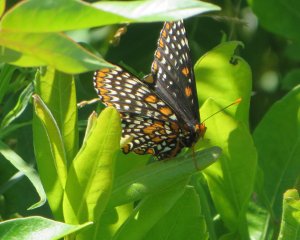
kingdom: Animalia
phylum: Arthropoda
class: Insecta
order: Lepidoptera
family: Nymphalidae
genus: Euphydryas
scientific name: Euphydryas phaeton
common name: Baltimore Checkerspot
